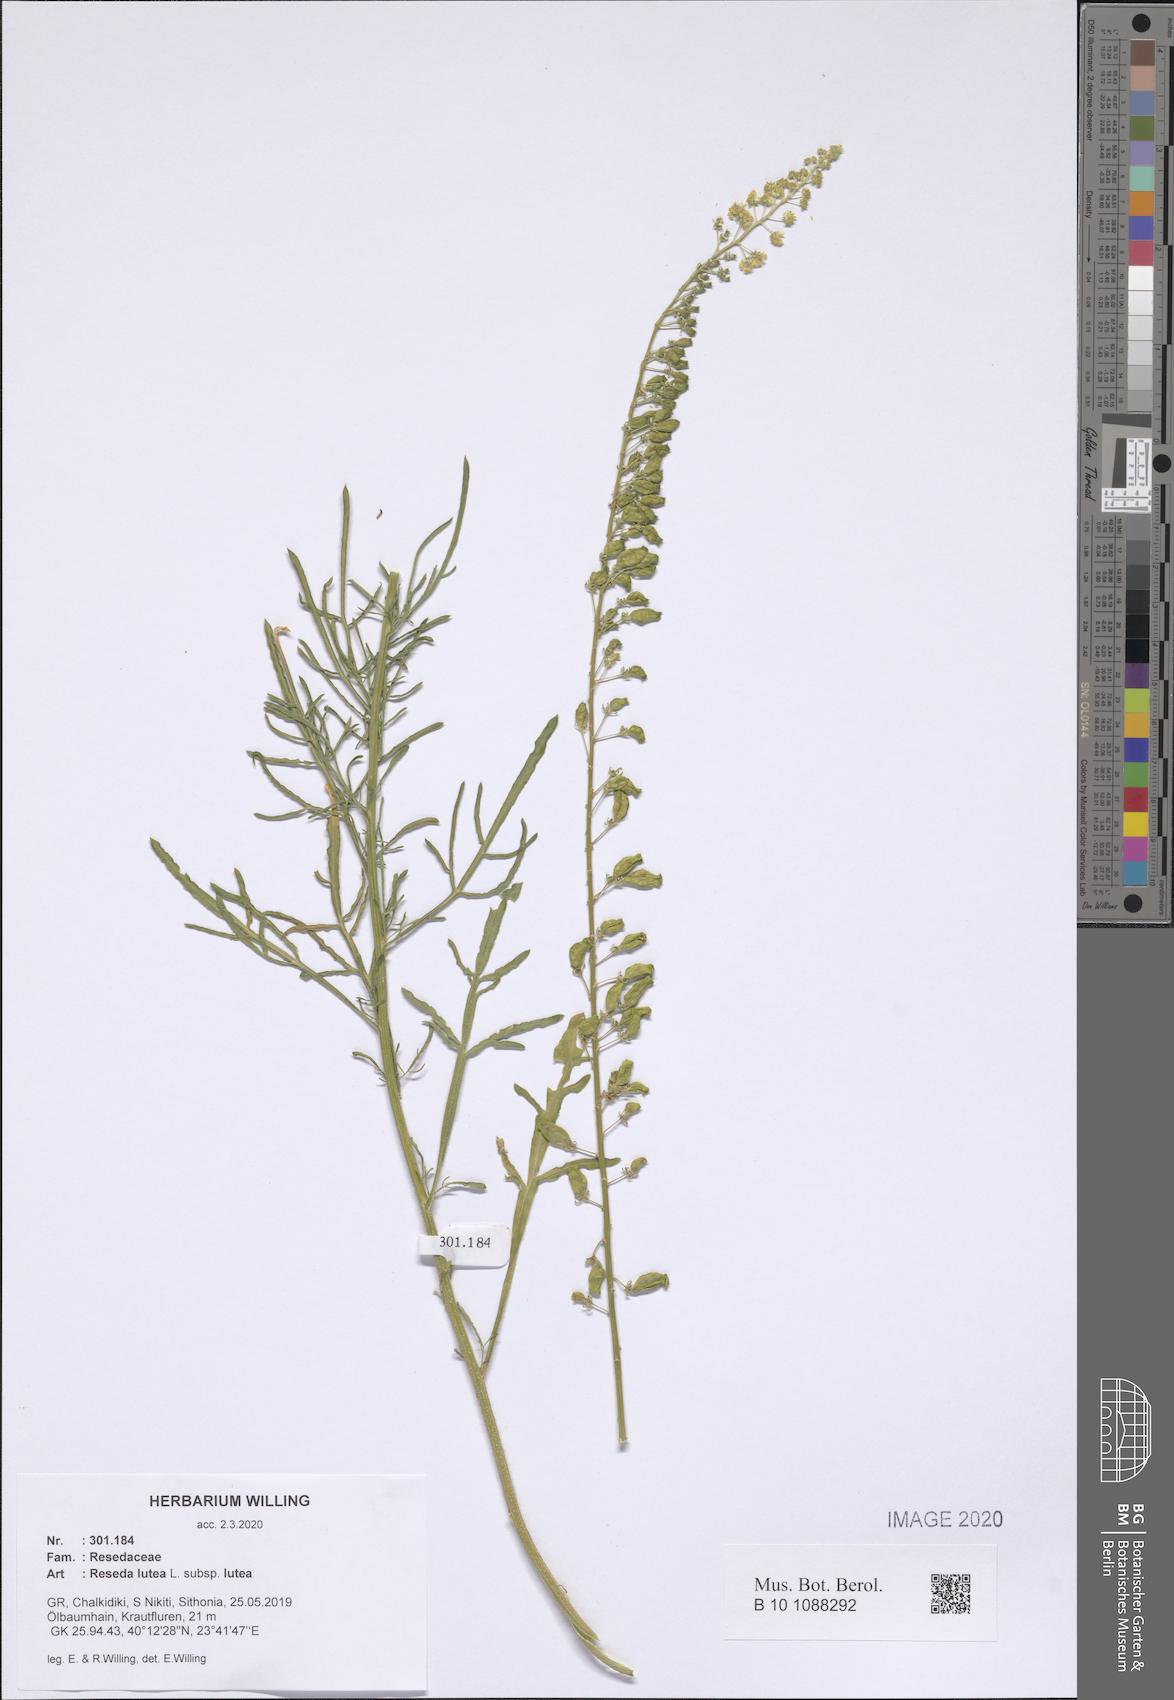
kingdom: Plantae
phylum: Tracheophyta
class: Magnoliopsida
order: Brassicales
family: Resedaceae
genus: Reseda
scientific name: Reseda lutea
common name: Wild mignonette
